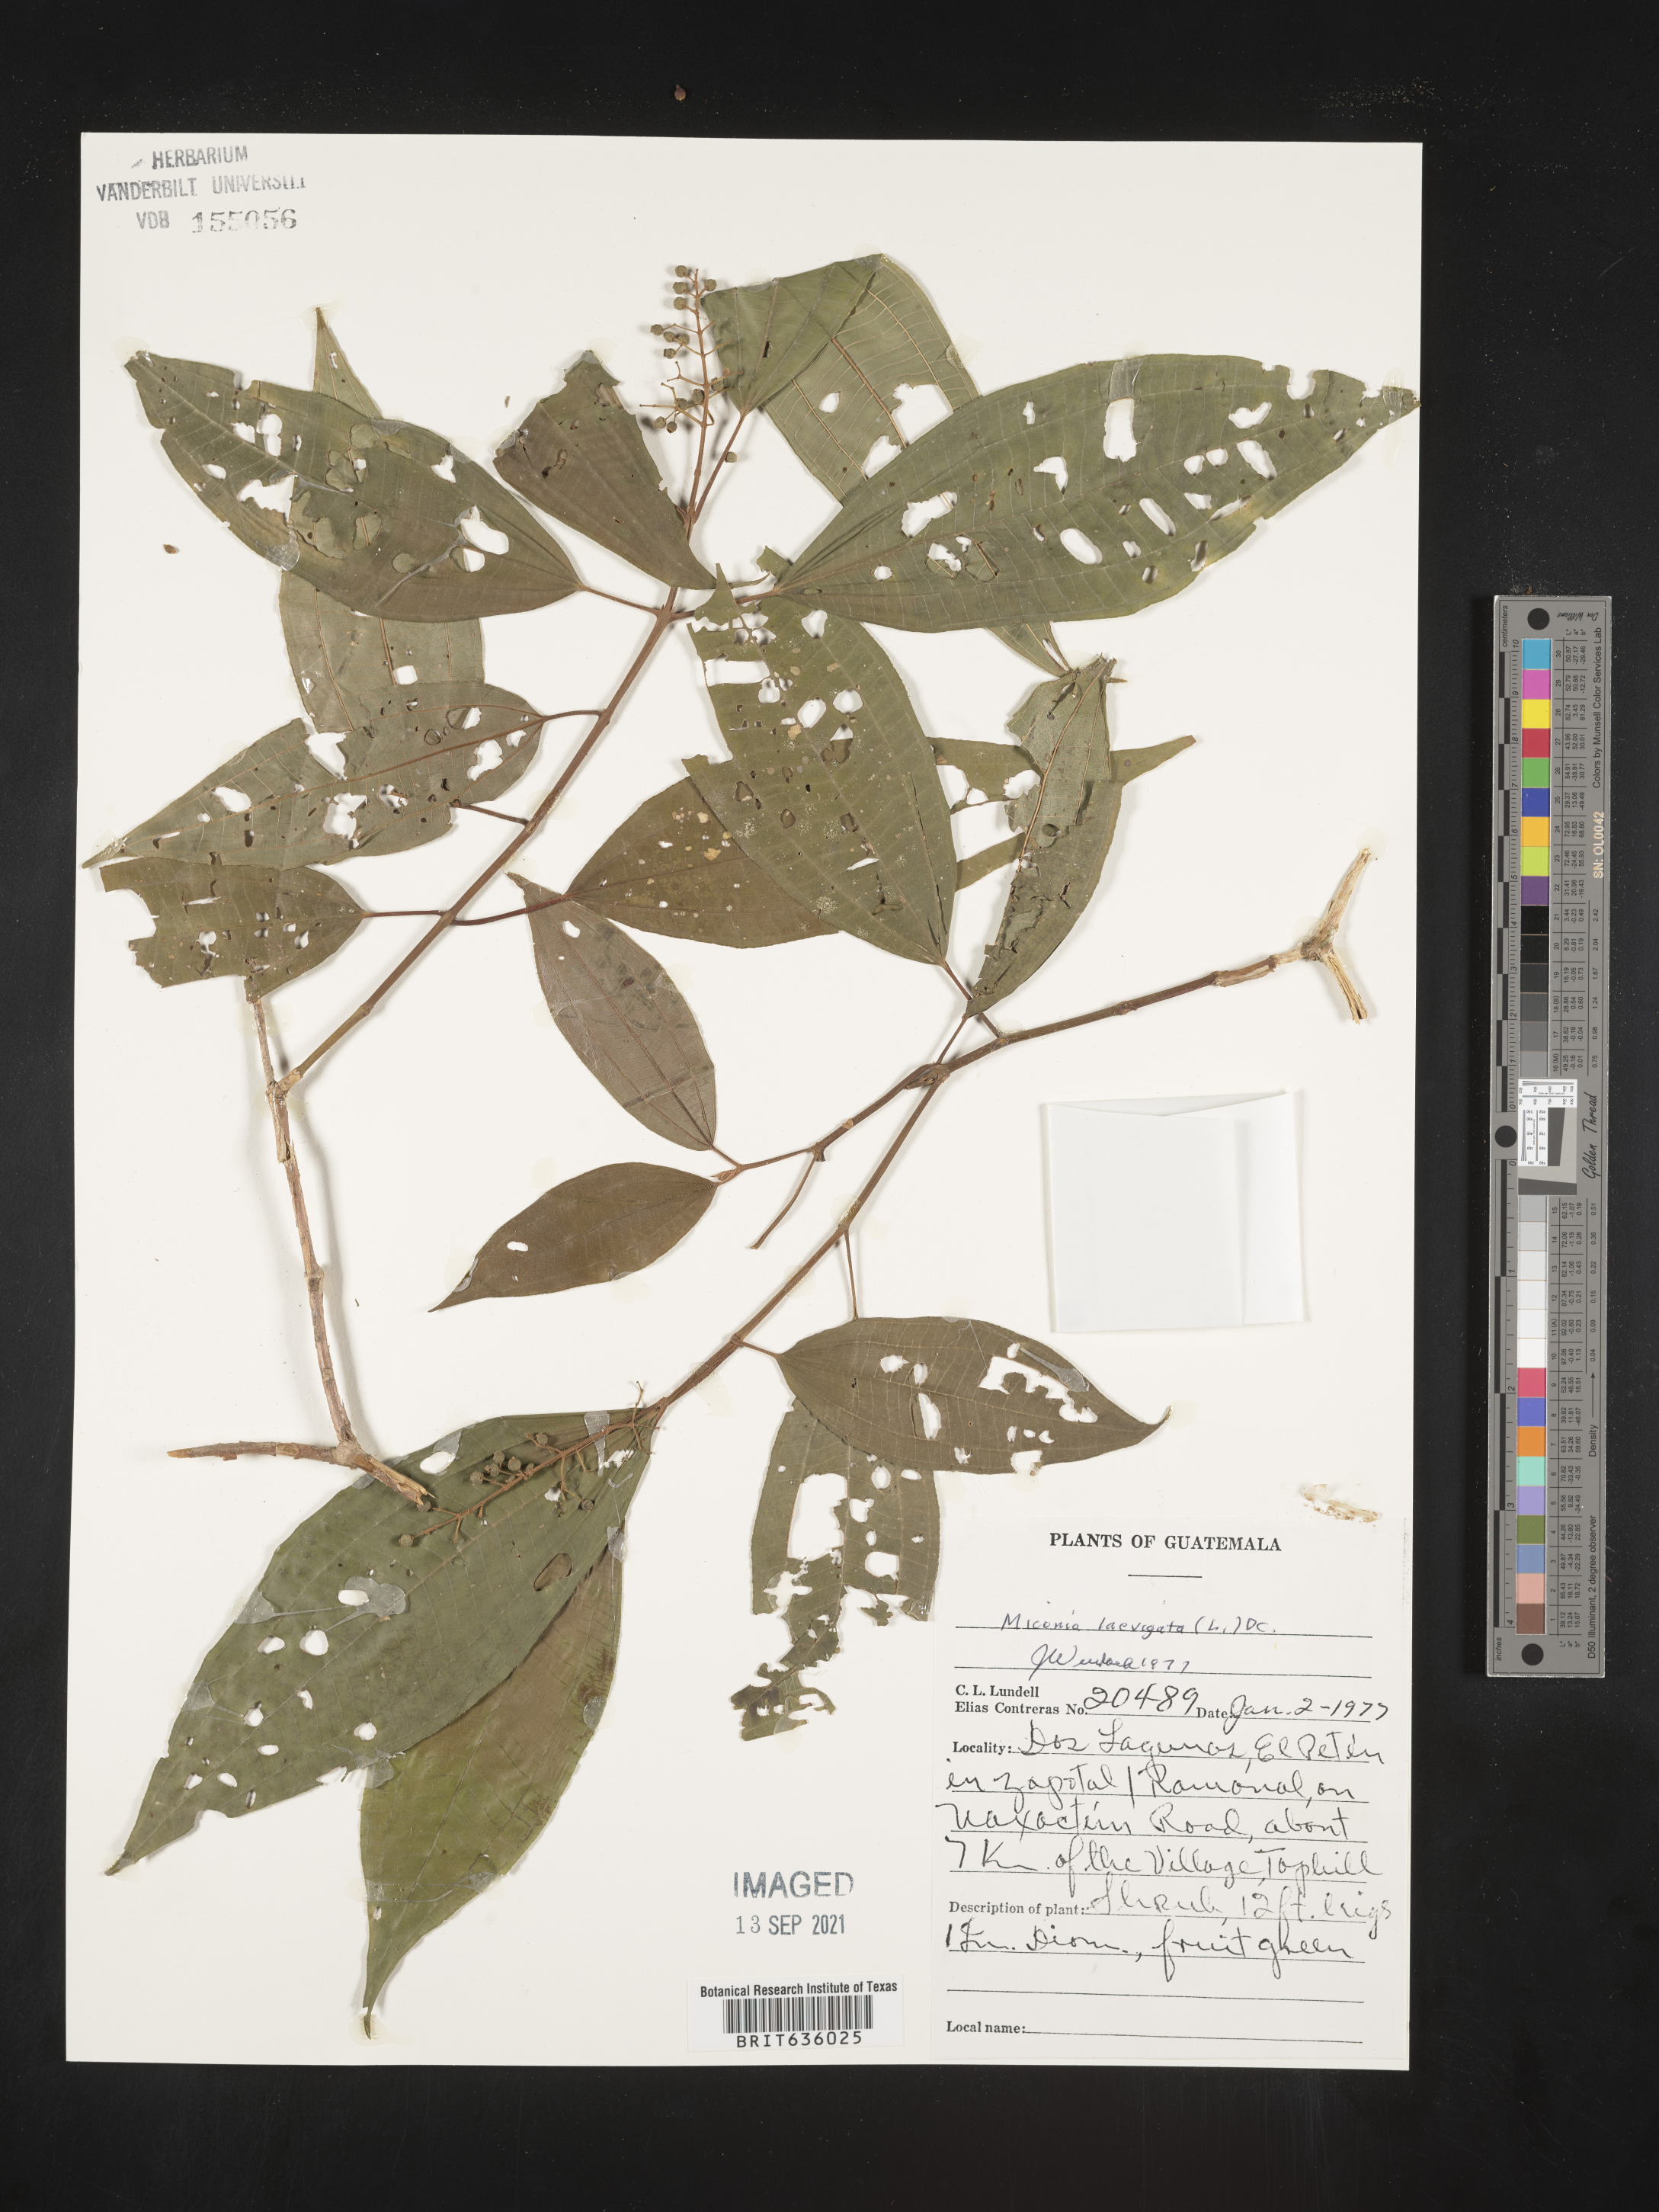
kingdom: Plantae
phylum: Tracheophyta
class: Magnoliopsida
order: Myrtales
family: Melastomataceae
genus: Miconia
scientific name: Miconia
